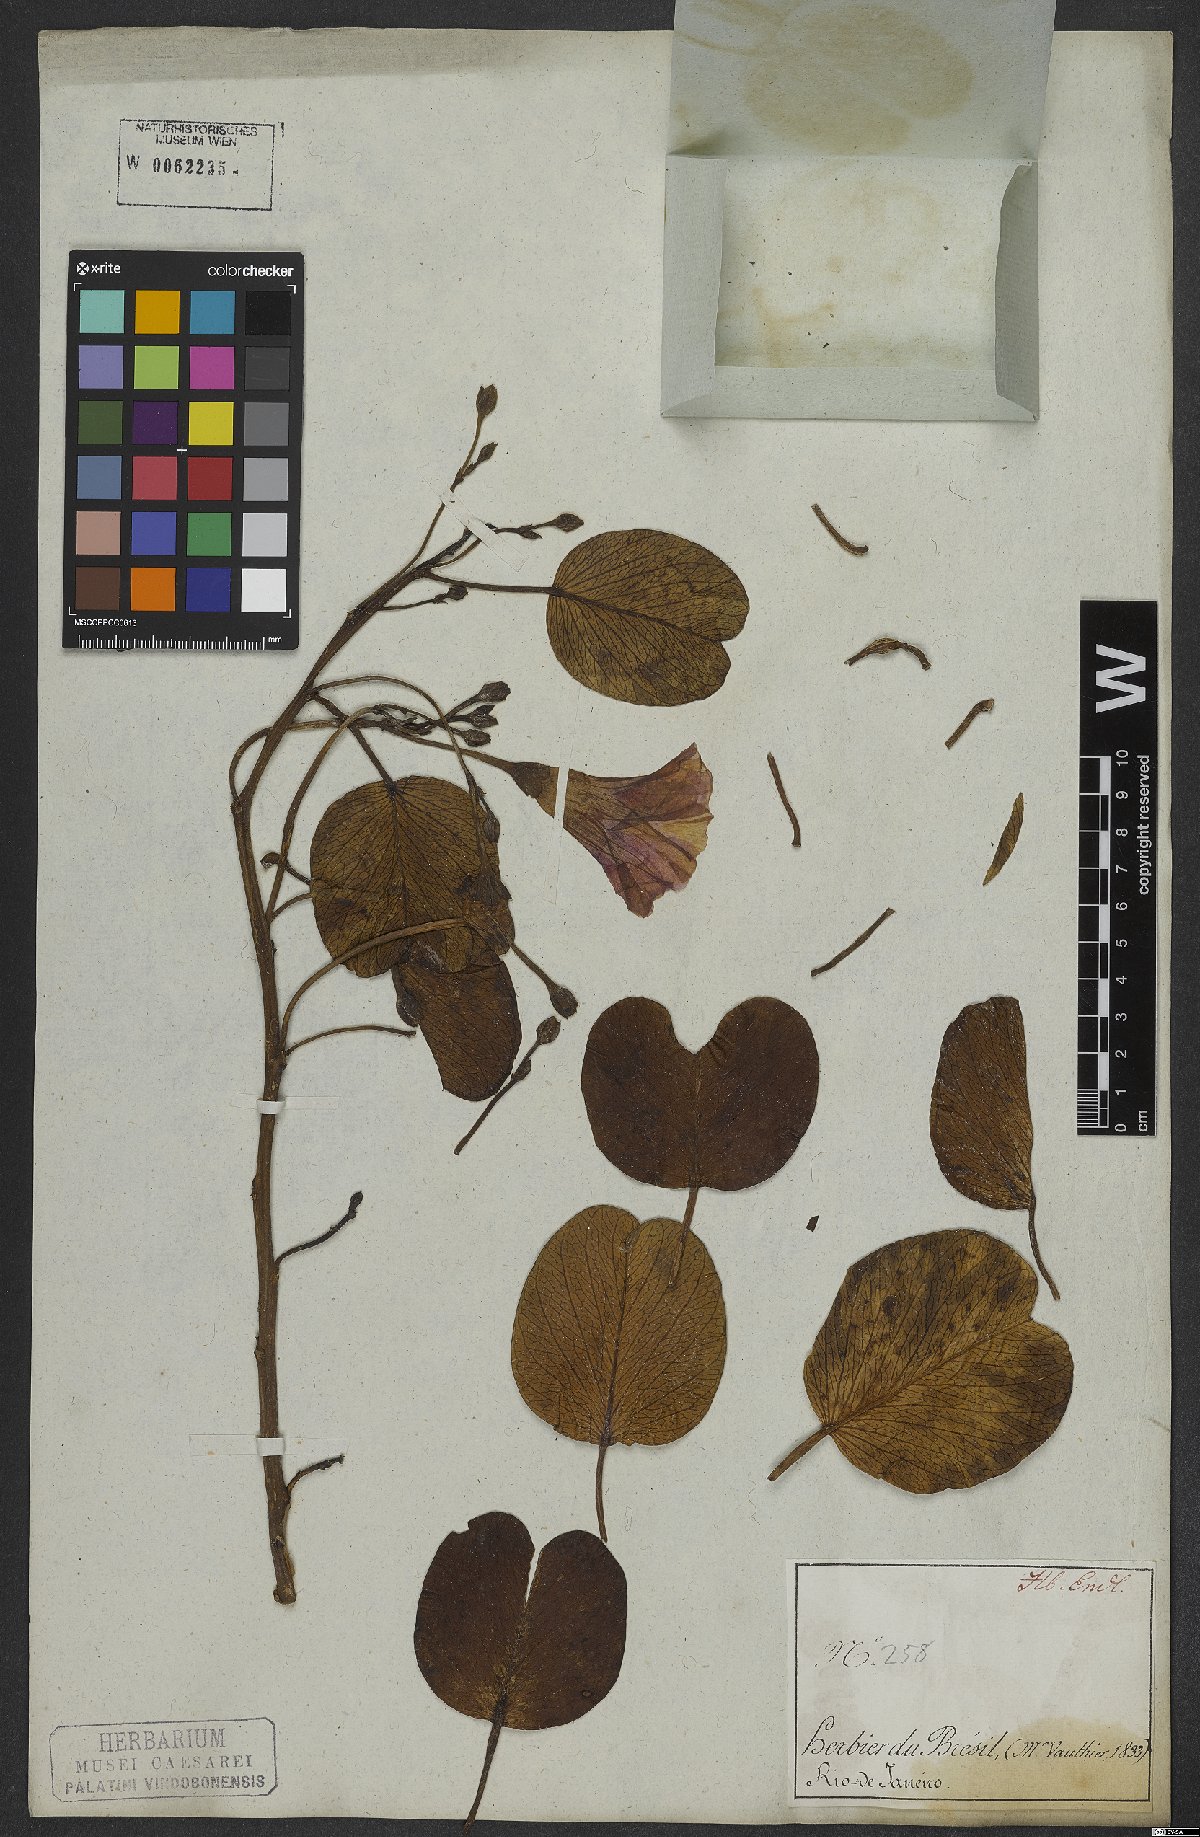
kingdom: Plantae
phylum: Tracheophyta
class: Magnoliopsida
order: Solanales
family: Convolvulaceae
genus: Ipomoea
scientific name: Ipomoea pes-caprae
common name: Beach morning glory
